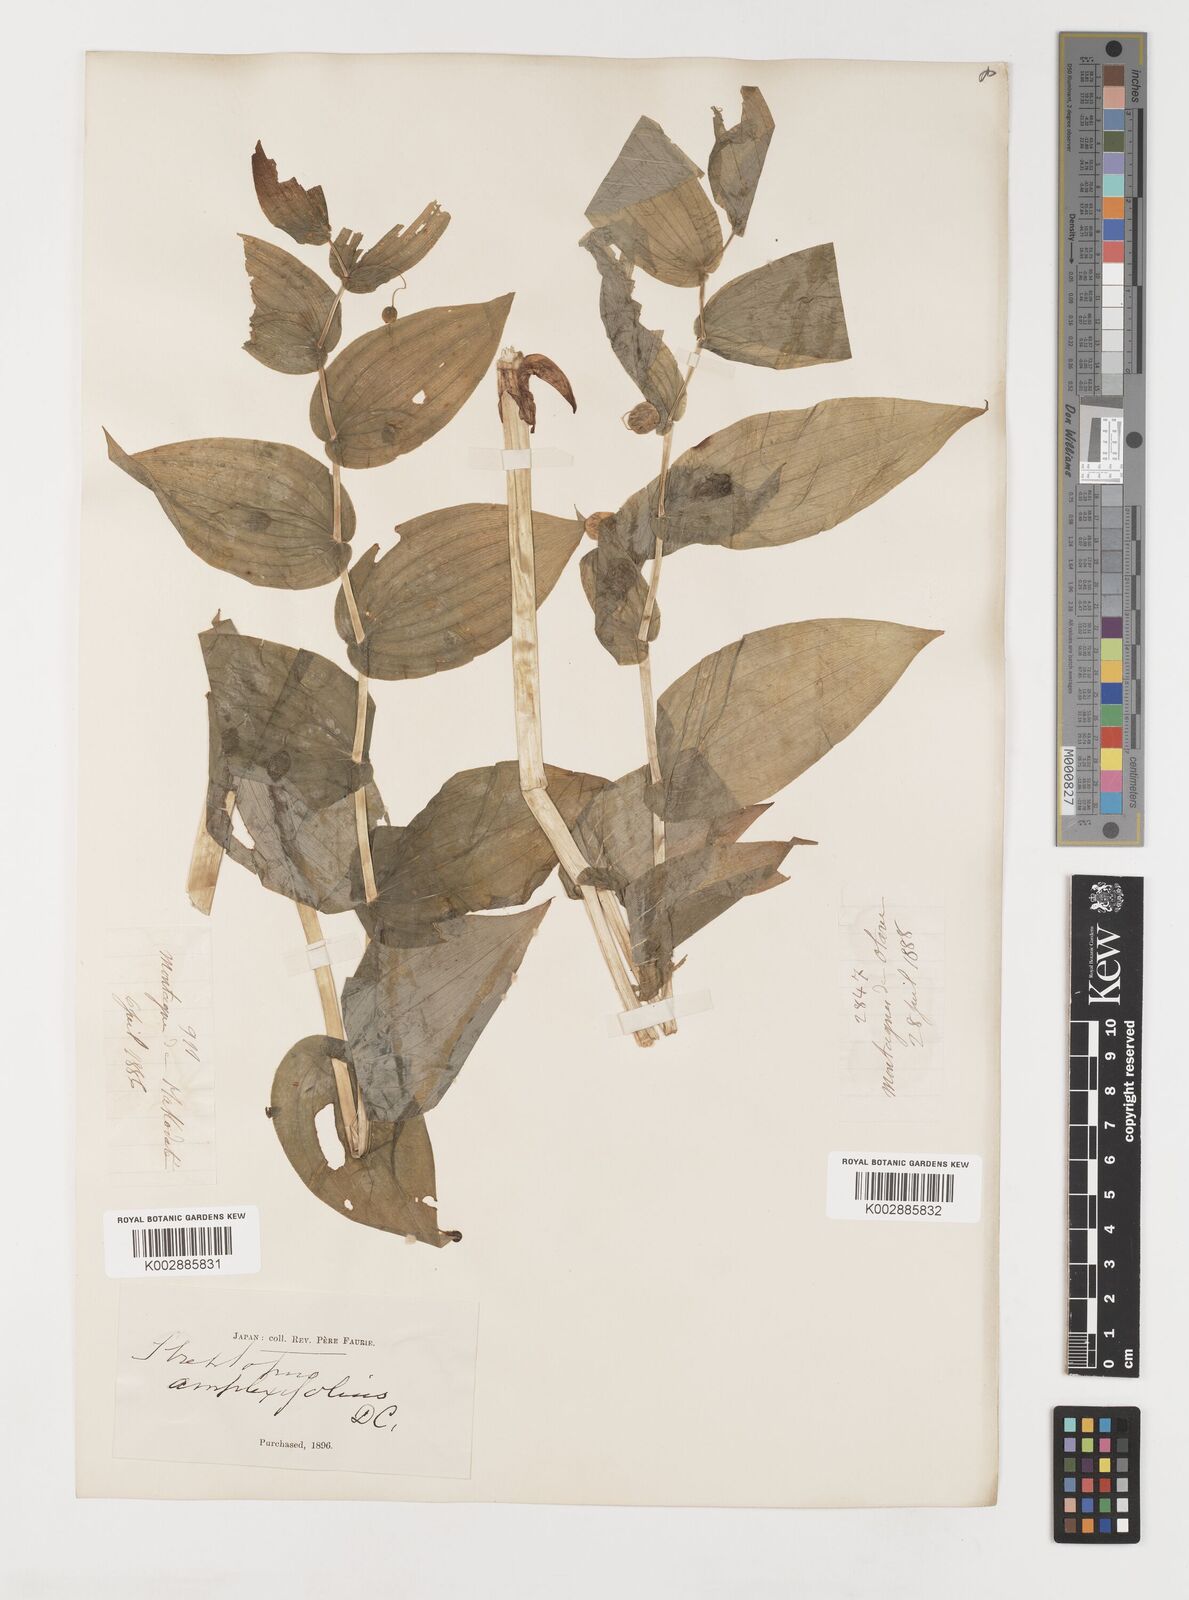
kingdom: Plantae
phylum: Tracheophyta
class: Liliopsida
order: Liliales
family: Liliaceae
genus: Streptopus
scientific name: Streptopus amplexifolius
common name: Clasp twisted stalk
